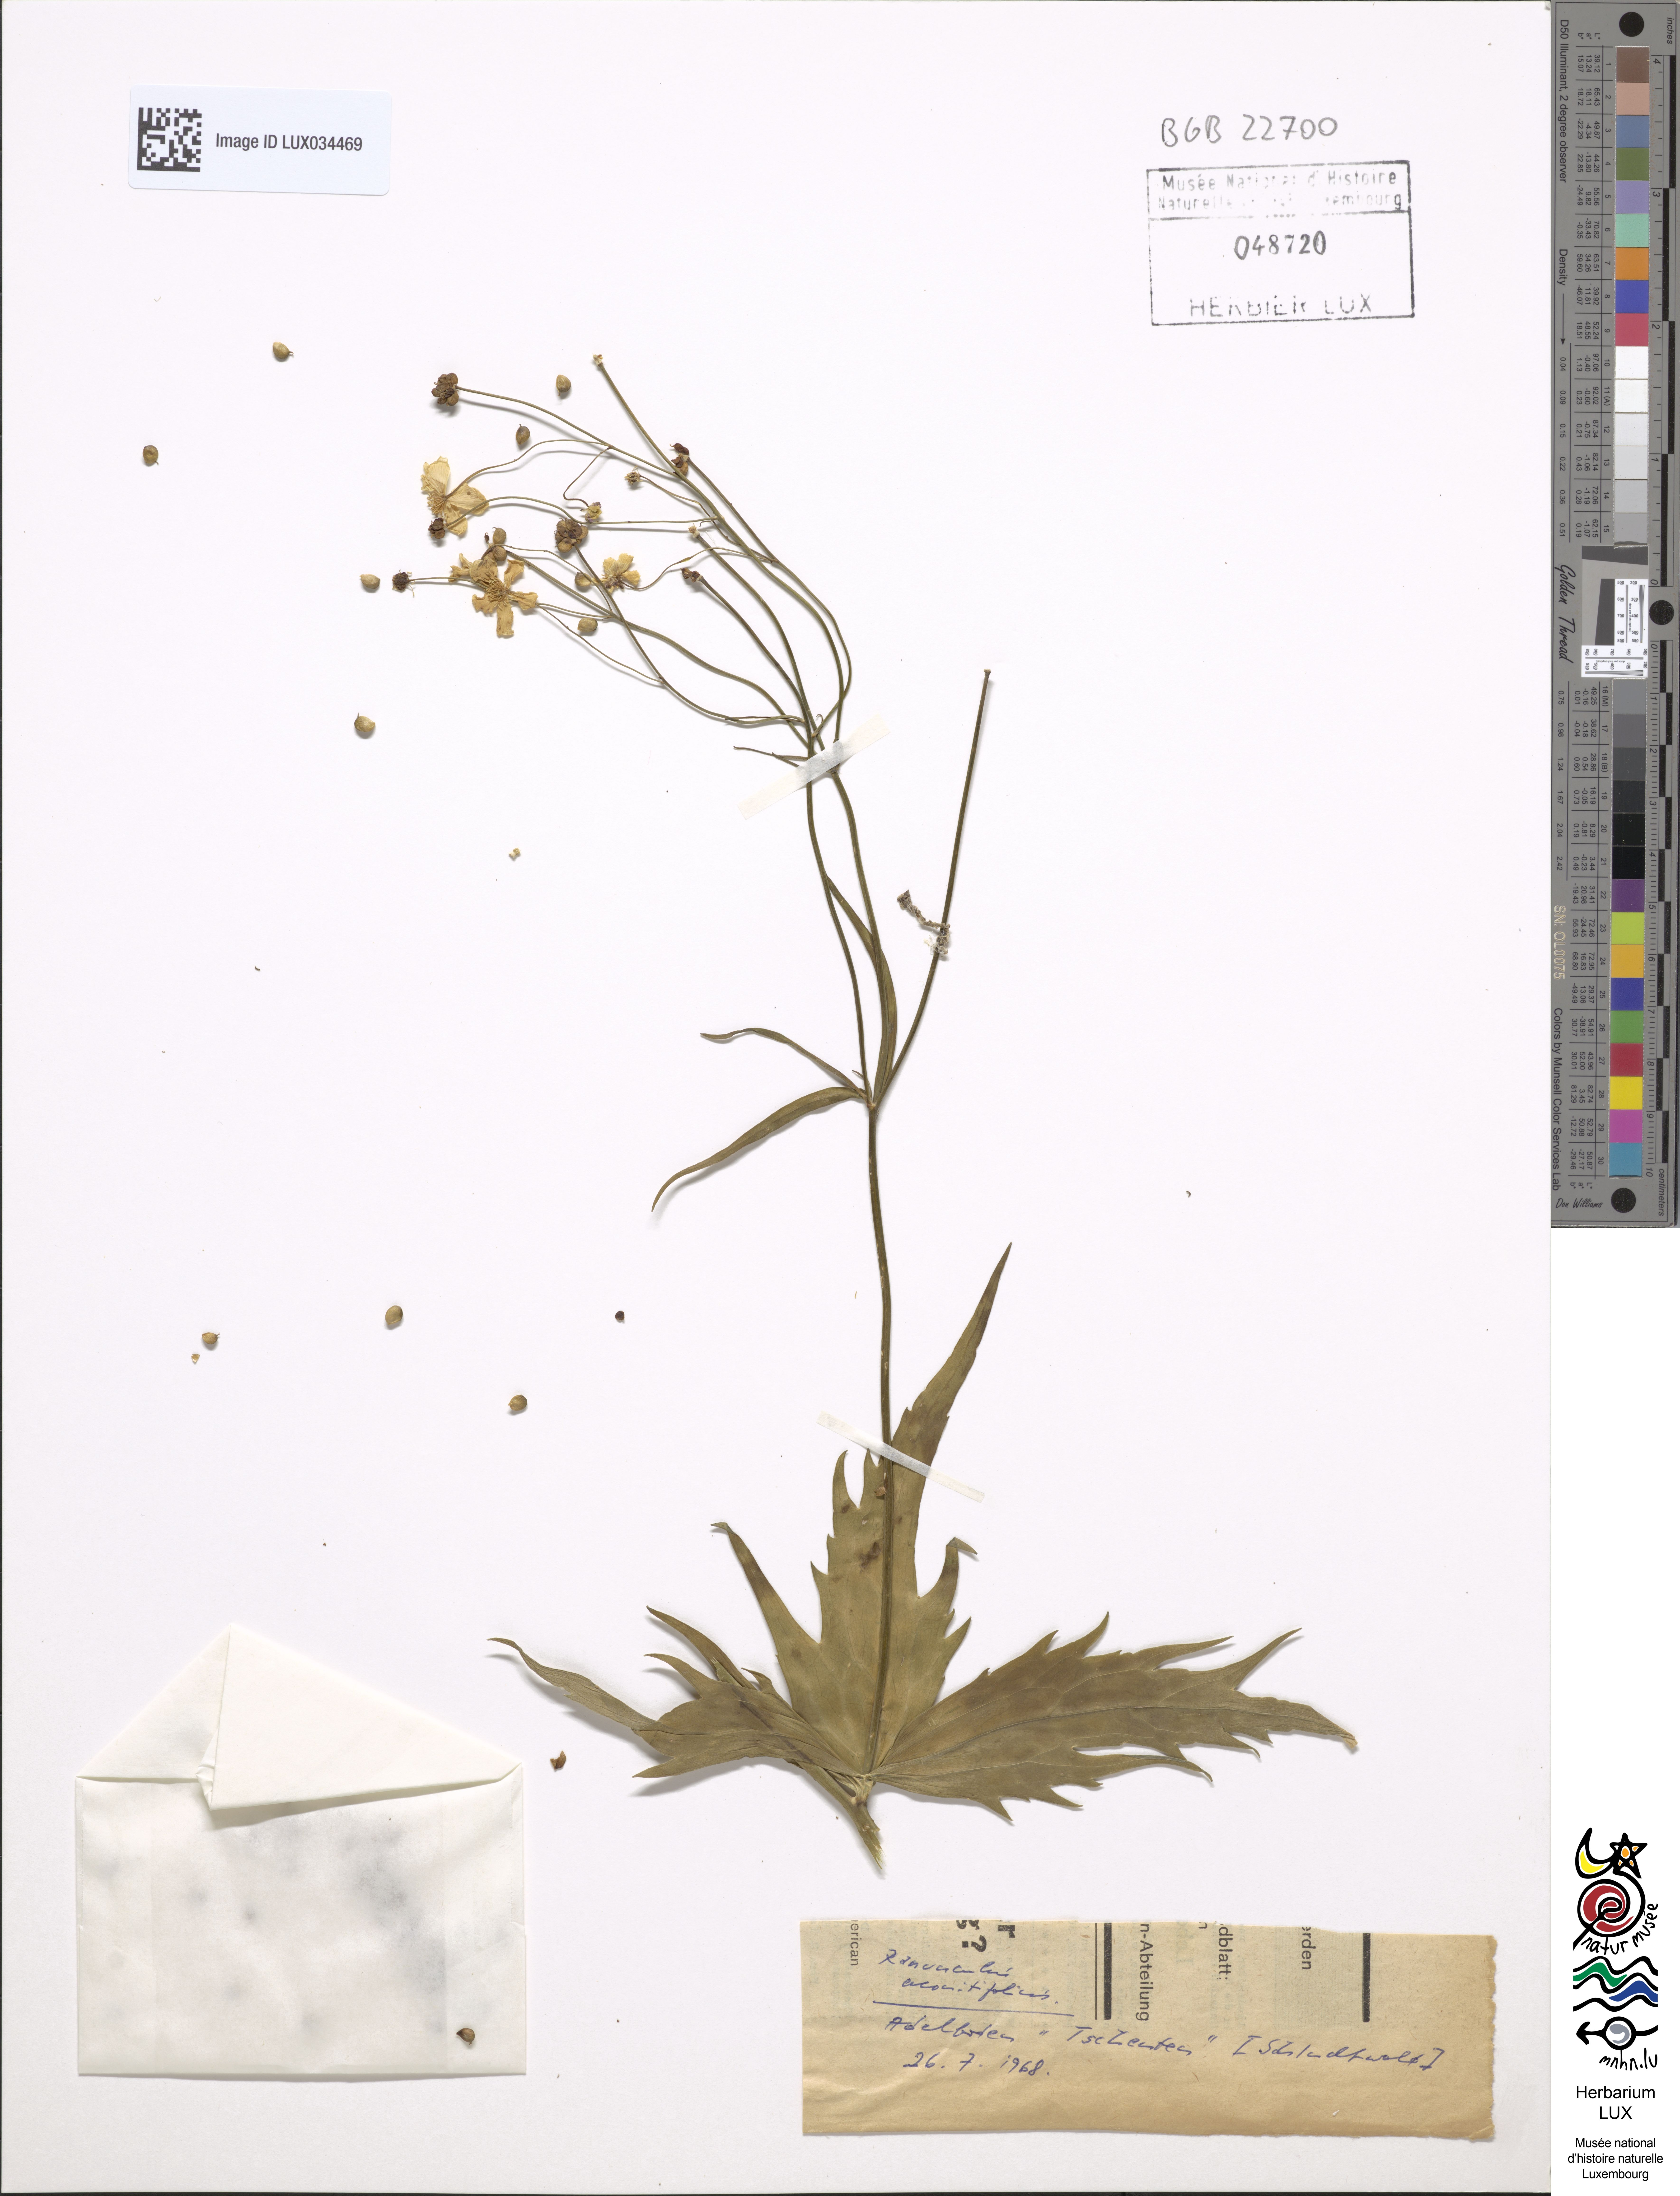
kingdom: Plantae
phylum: Tracheophyta
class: Magnoliopsida
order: Ranunculales
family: Ranunculaceae
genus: Ranunculus
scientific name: Ranunculus aconitifolius
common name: Aconite-leaved buttercup
